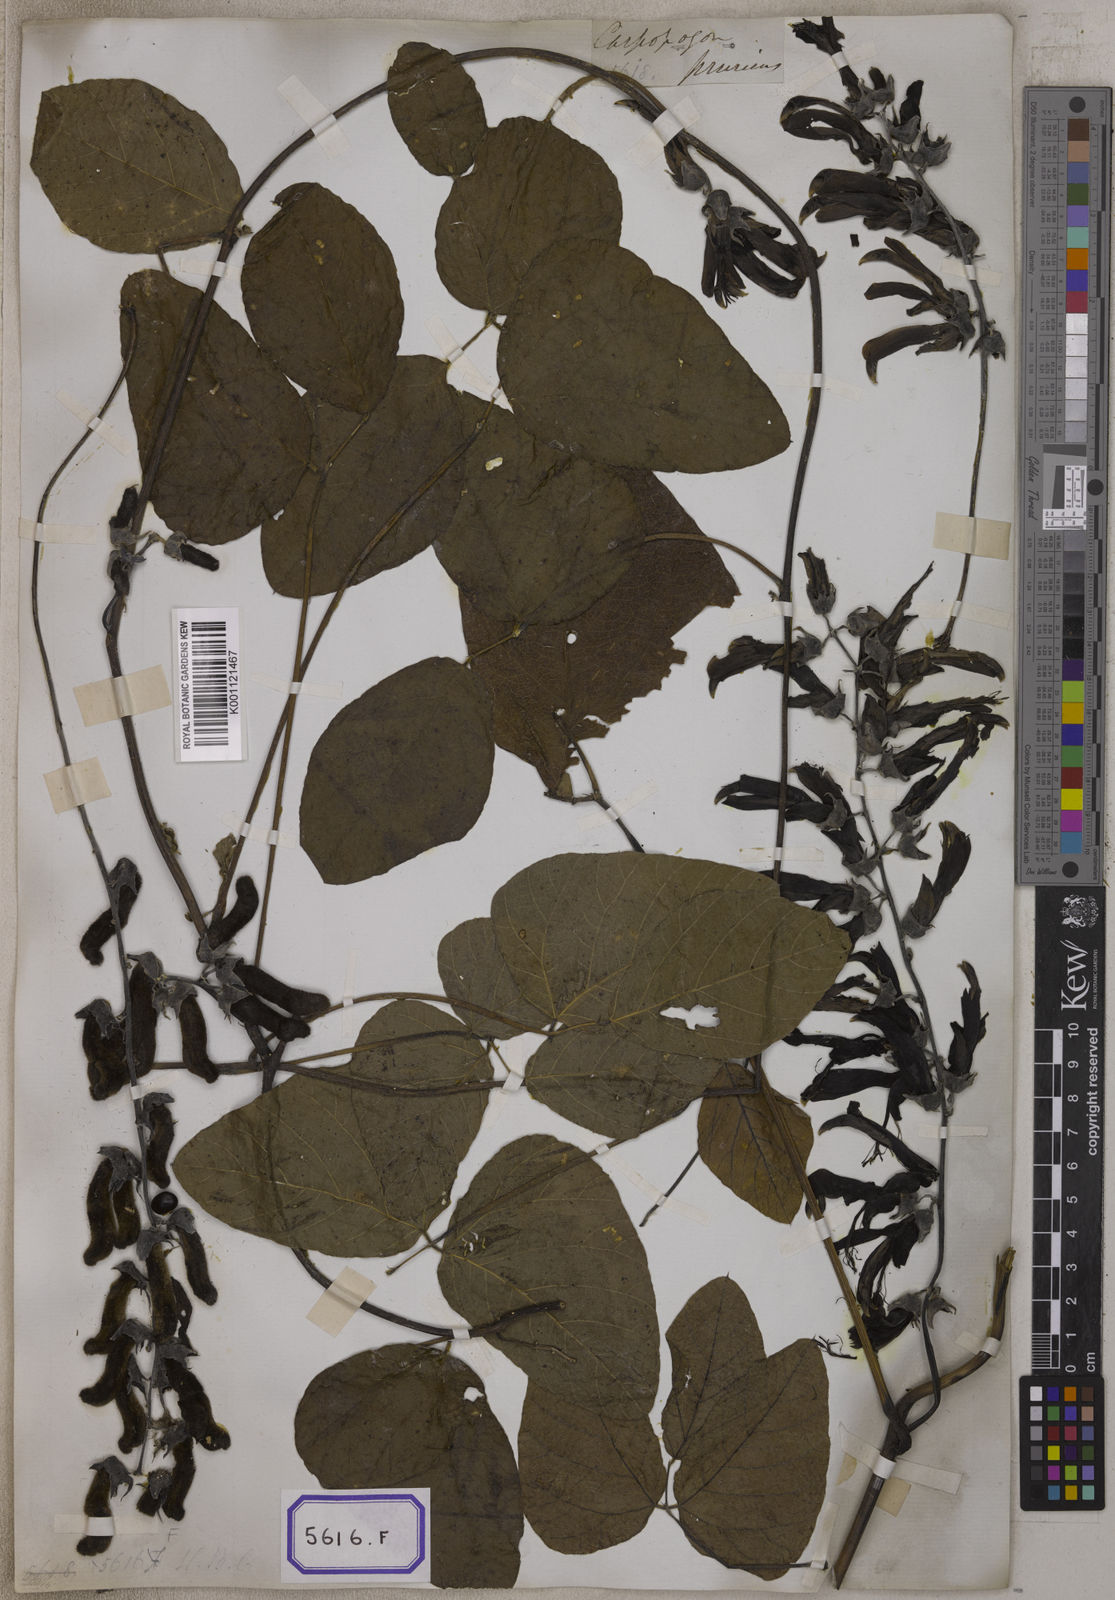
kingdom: Plantae
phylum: Tracheophyta
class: Magnoliopsida
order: Fabales
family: Fabaceae
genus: Mucuna
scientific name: Mucuna pruriens
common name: Cow-itch
